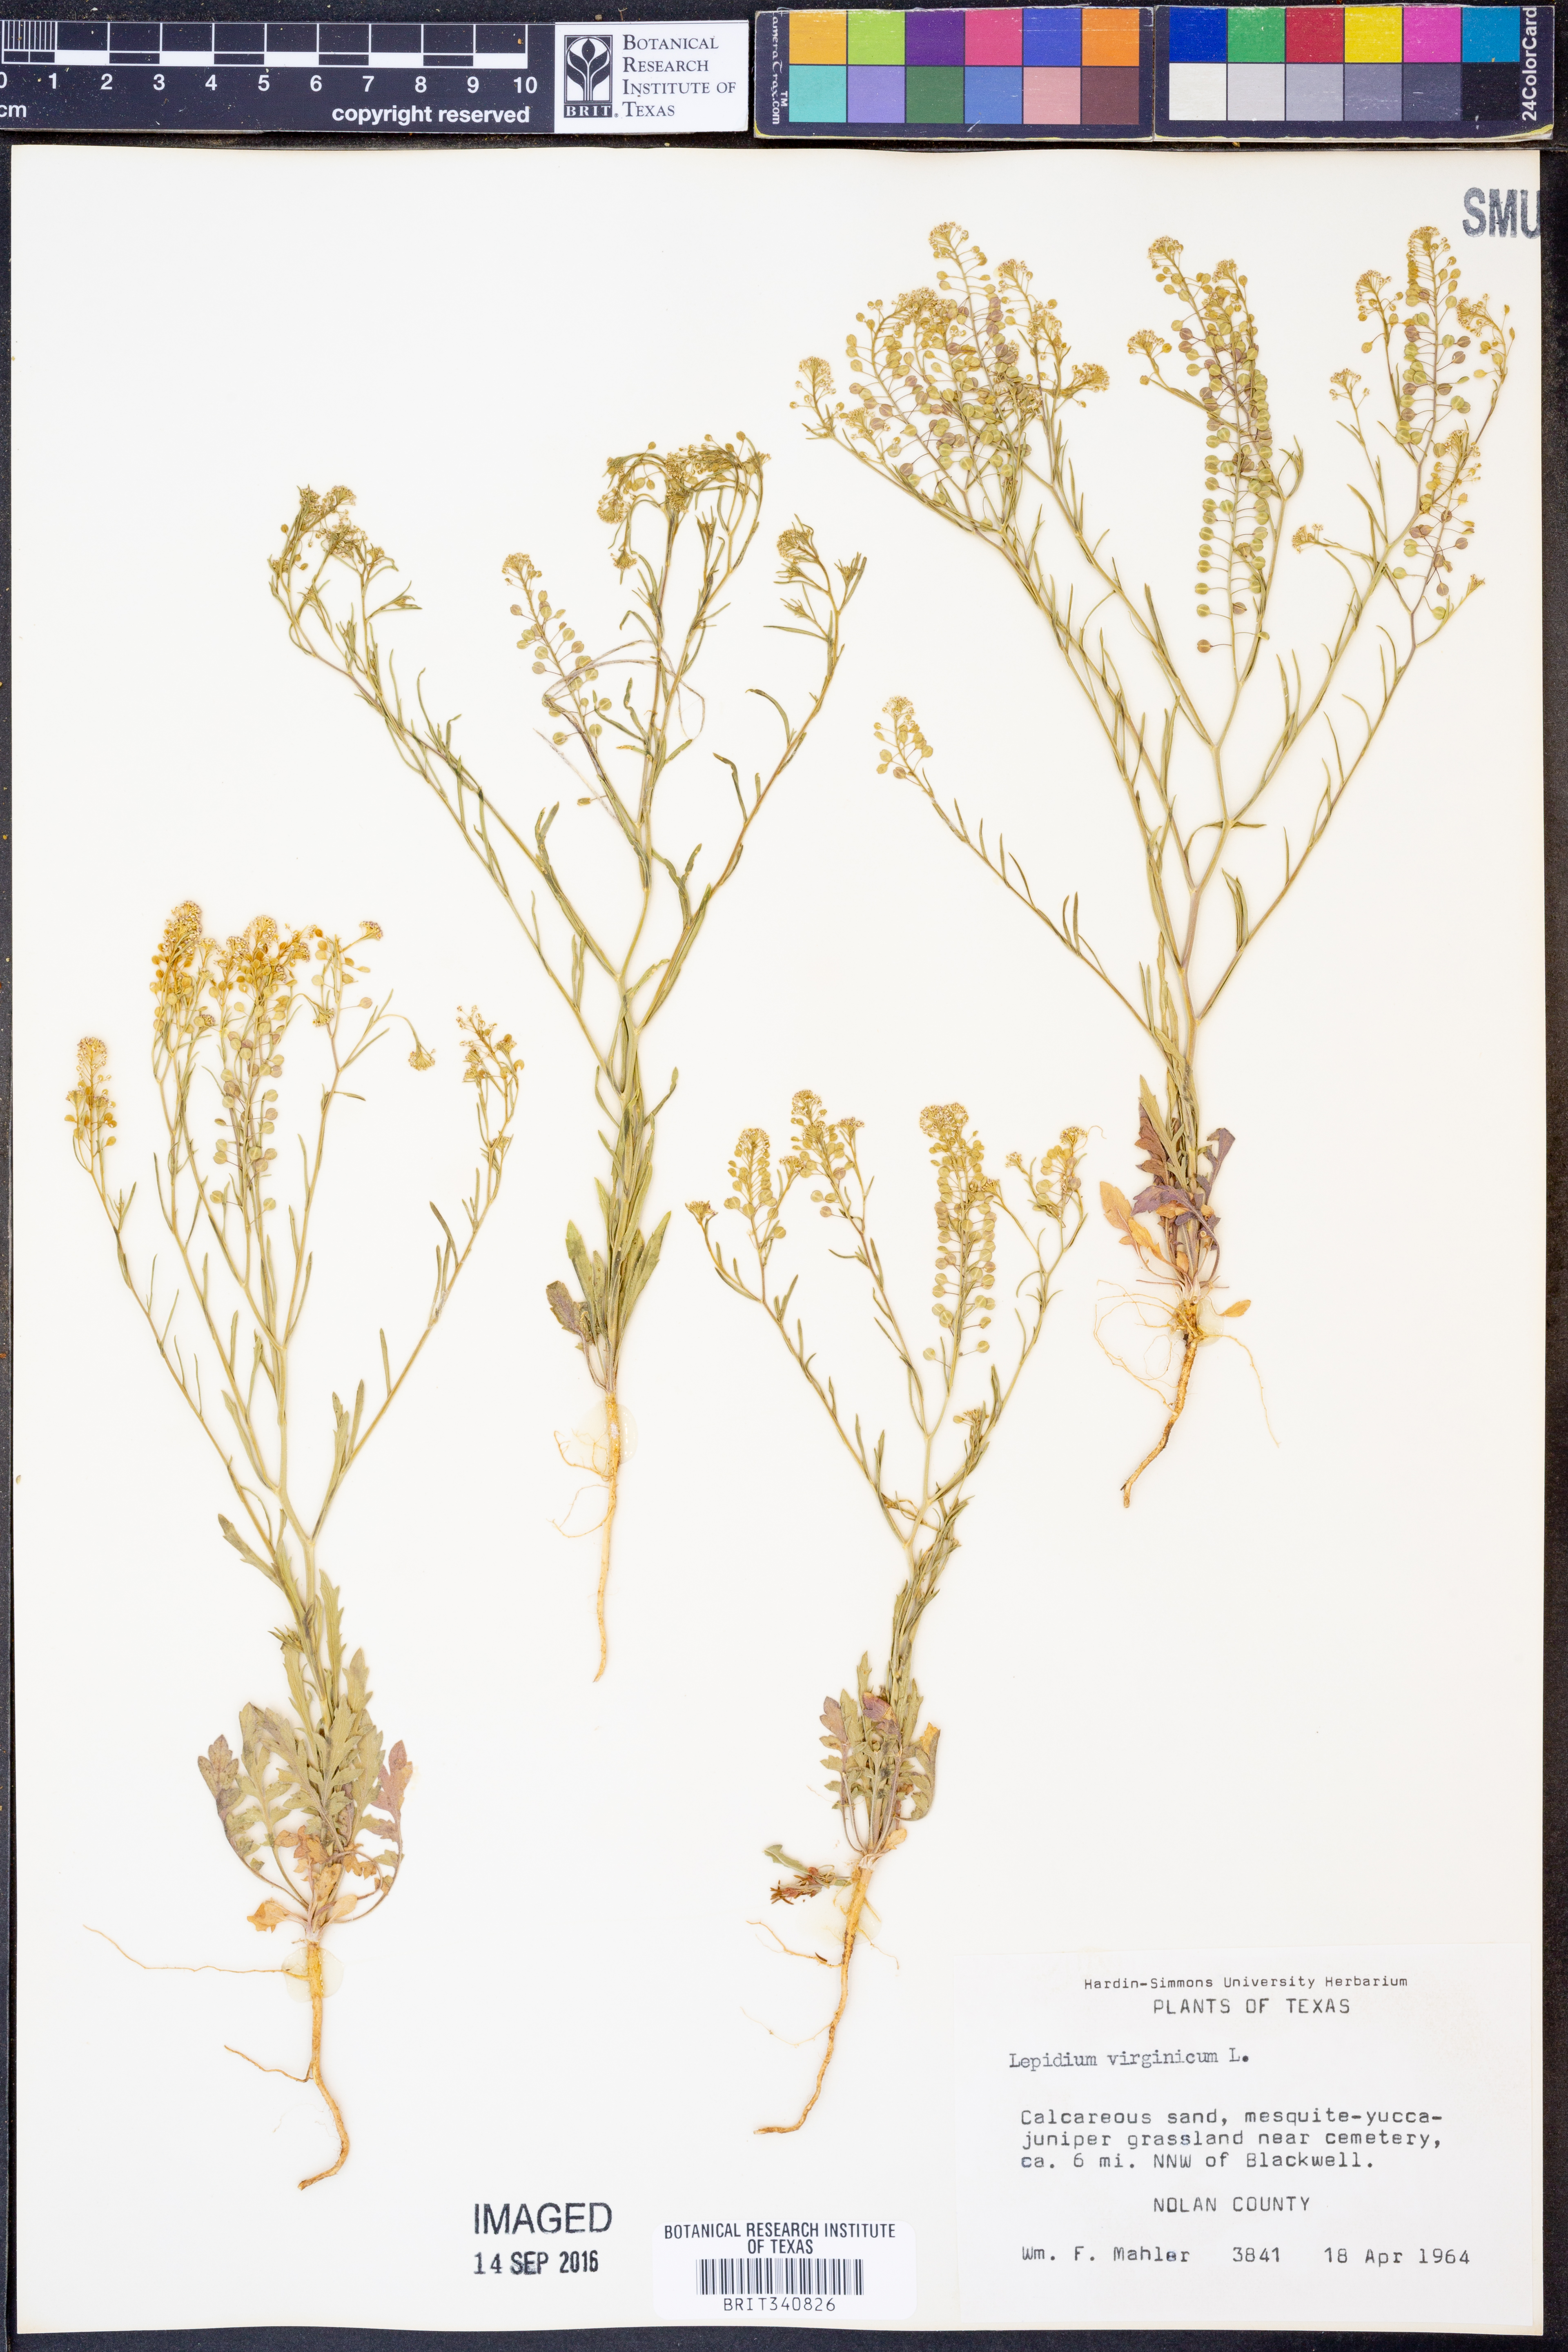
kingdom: Plantae
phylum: Tracheophyta
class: Magnoliopsida
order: Brassicales
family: Brassicaceae
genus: Lepidium
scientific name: Lepidium virginicum
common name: Least pepperwort
